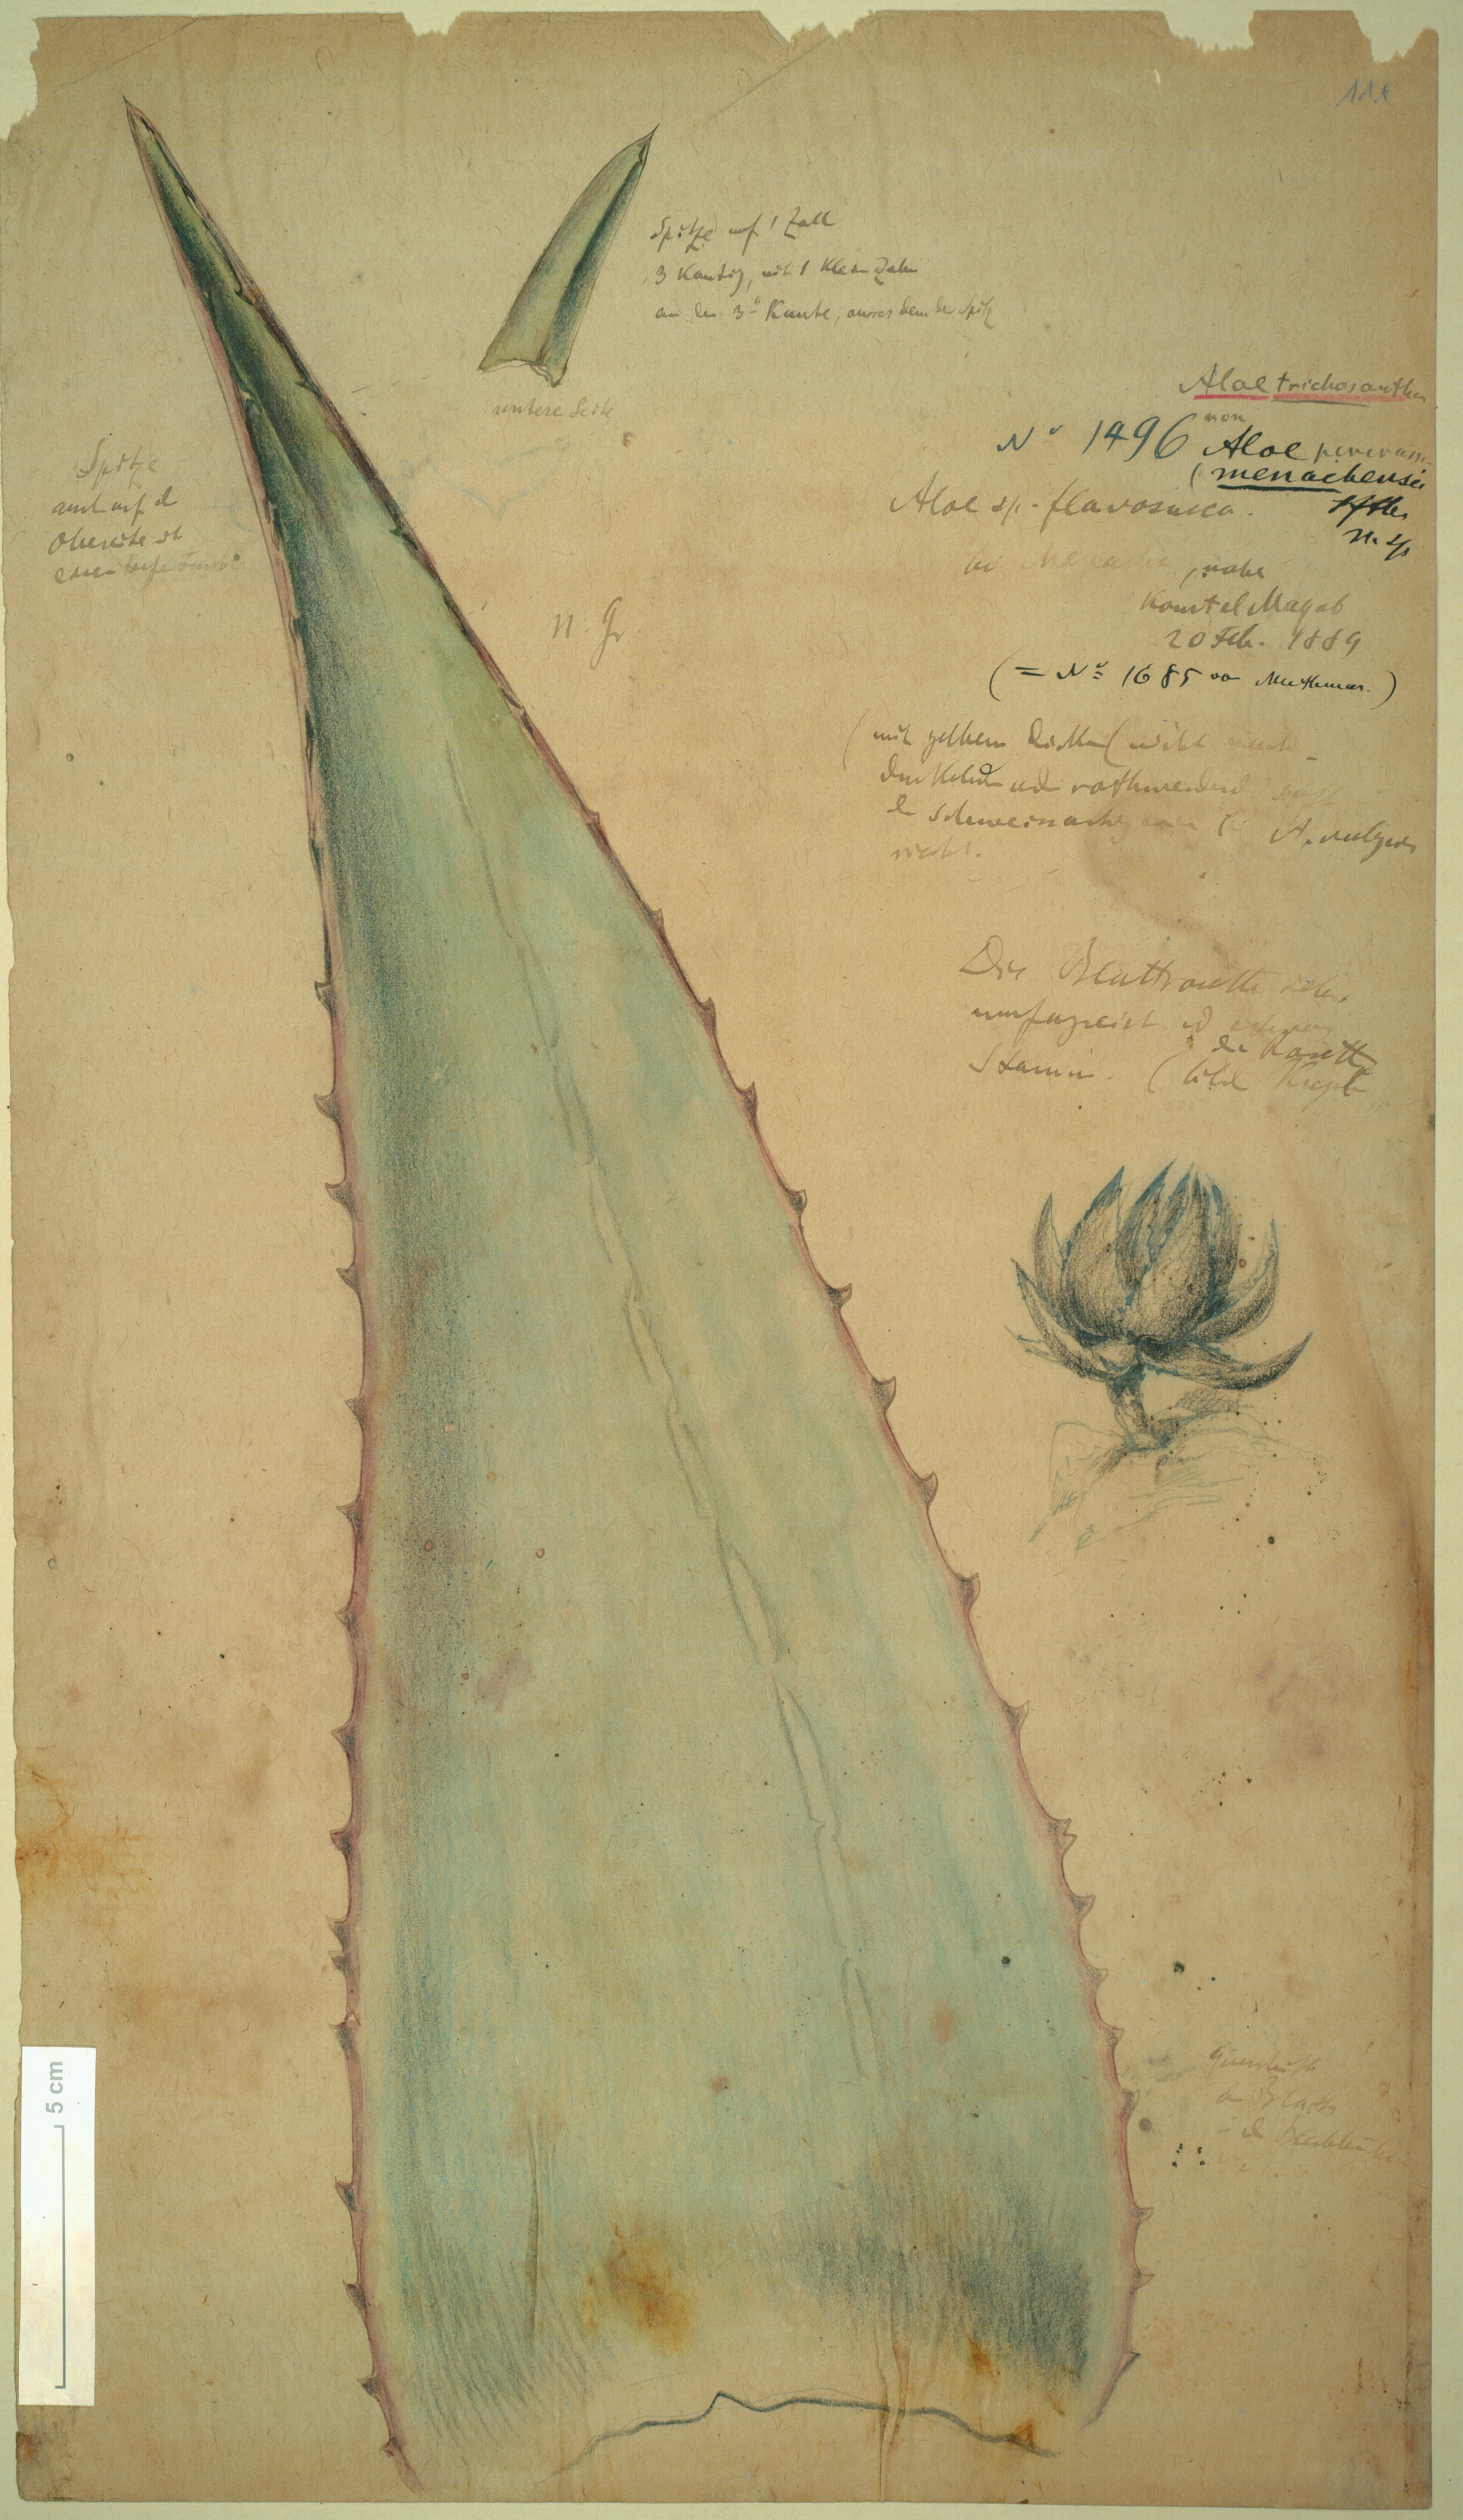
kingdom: Plantae
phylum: Tracheophyta
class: Liliopsida
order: Asparagales
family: Asphodelaceae
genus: Aloe
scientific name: Aloe menachensis
